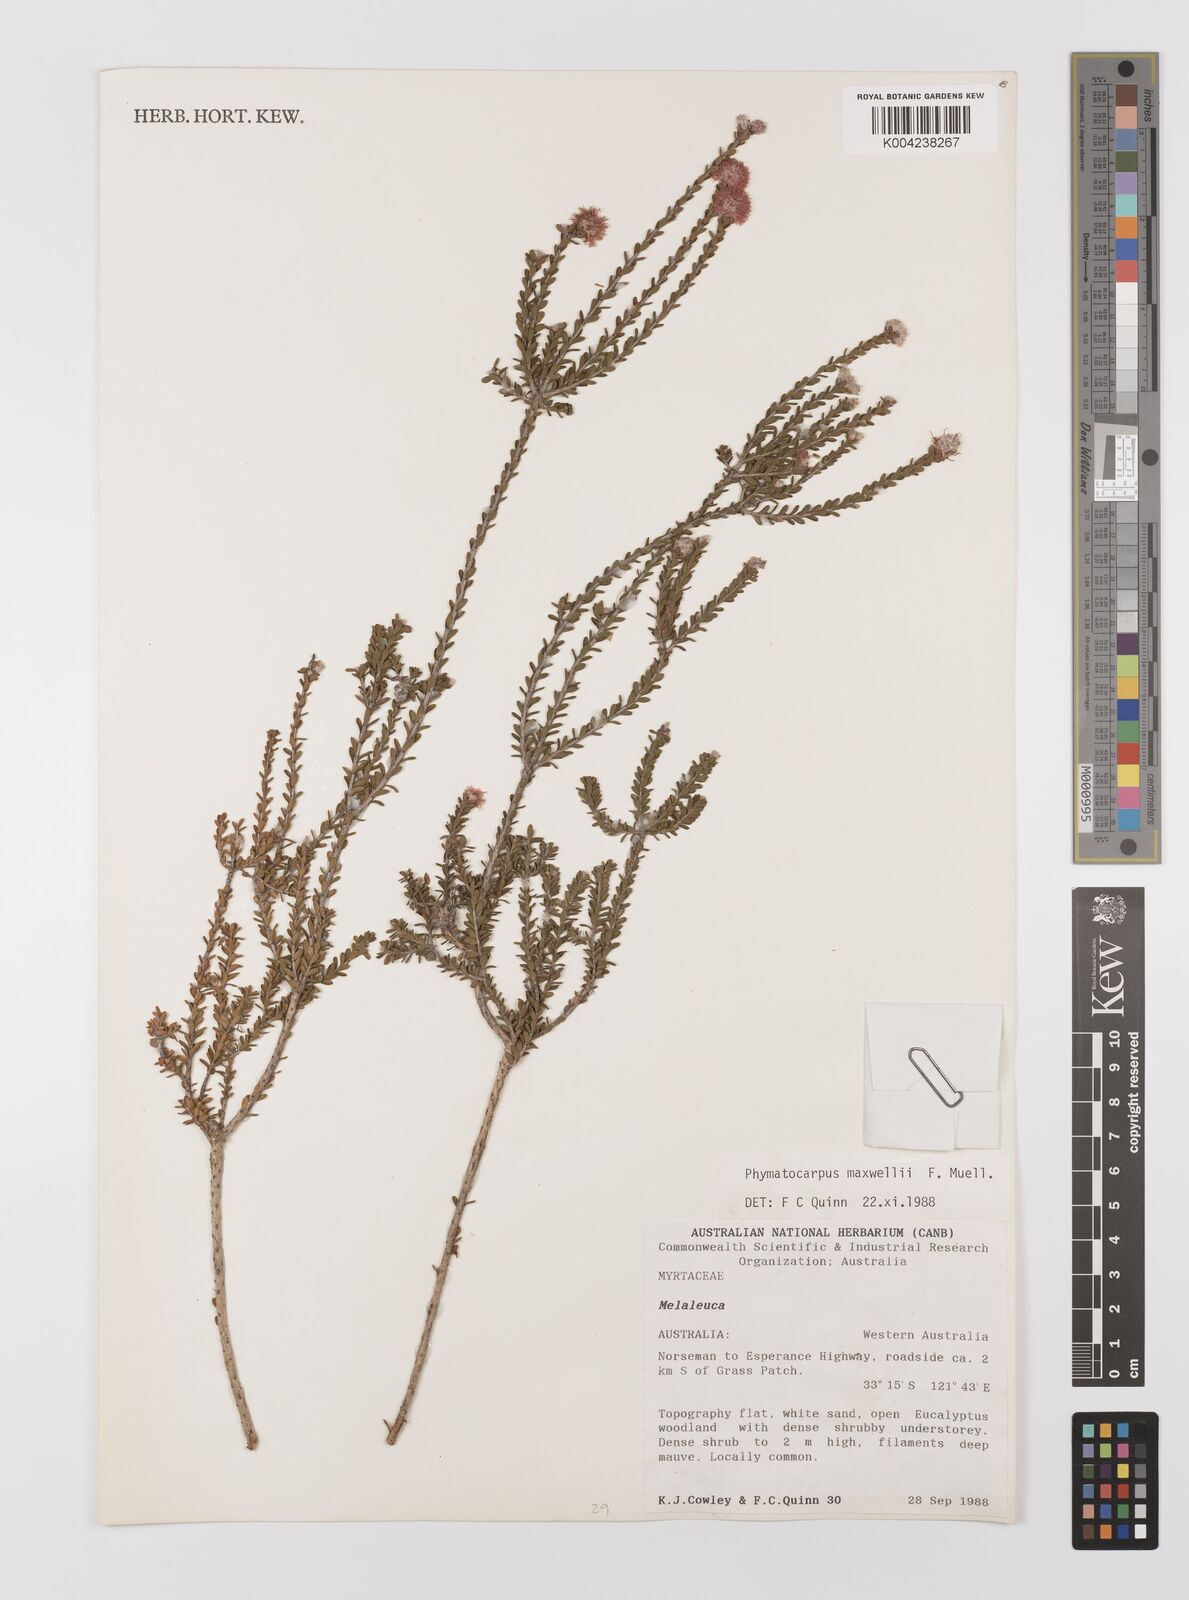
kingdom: Plantae
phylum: Tracheophyta
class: Magnoliopsida
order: Myrtales
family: Myrtaceae
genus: Melaleuca
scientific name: Melaleuca maxwellii
